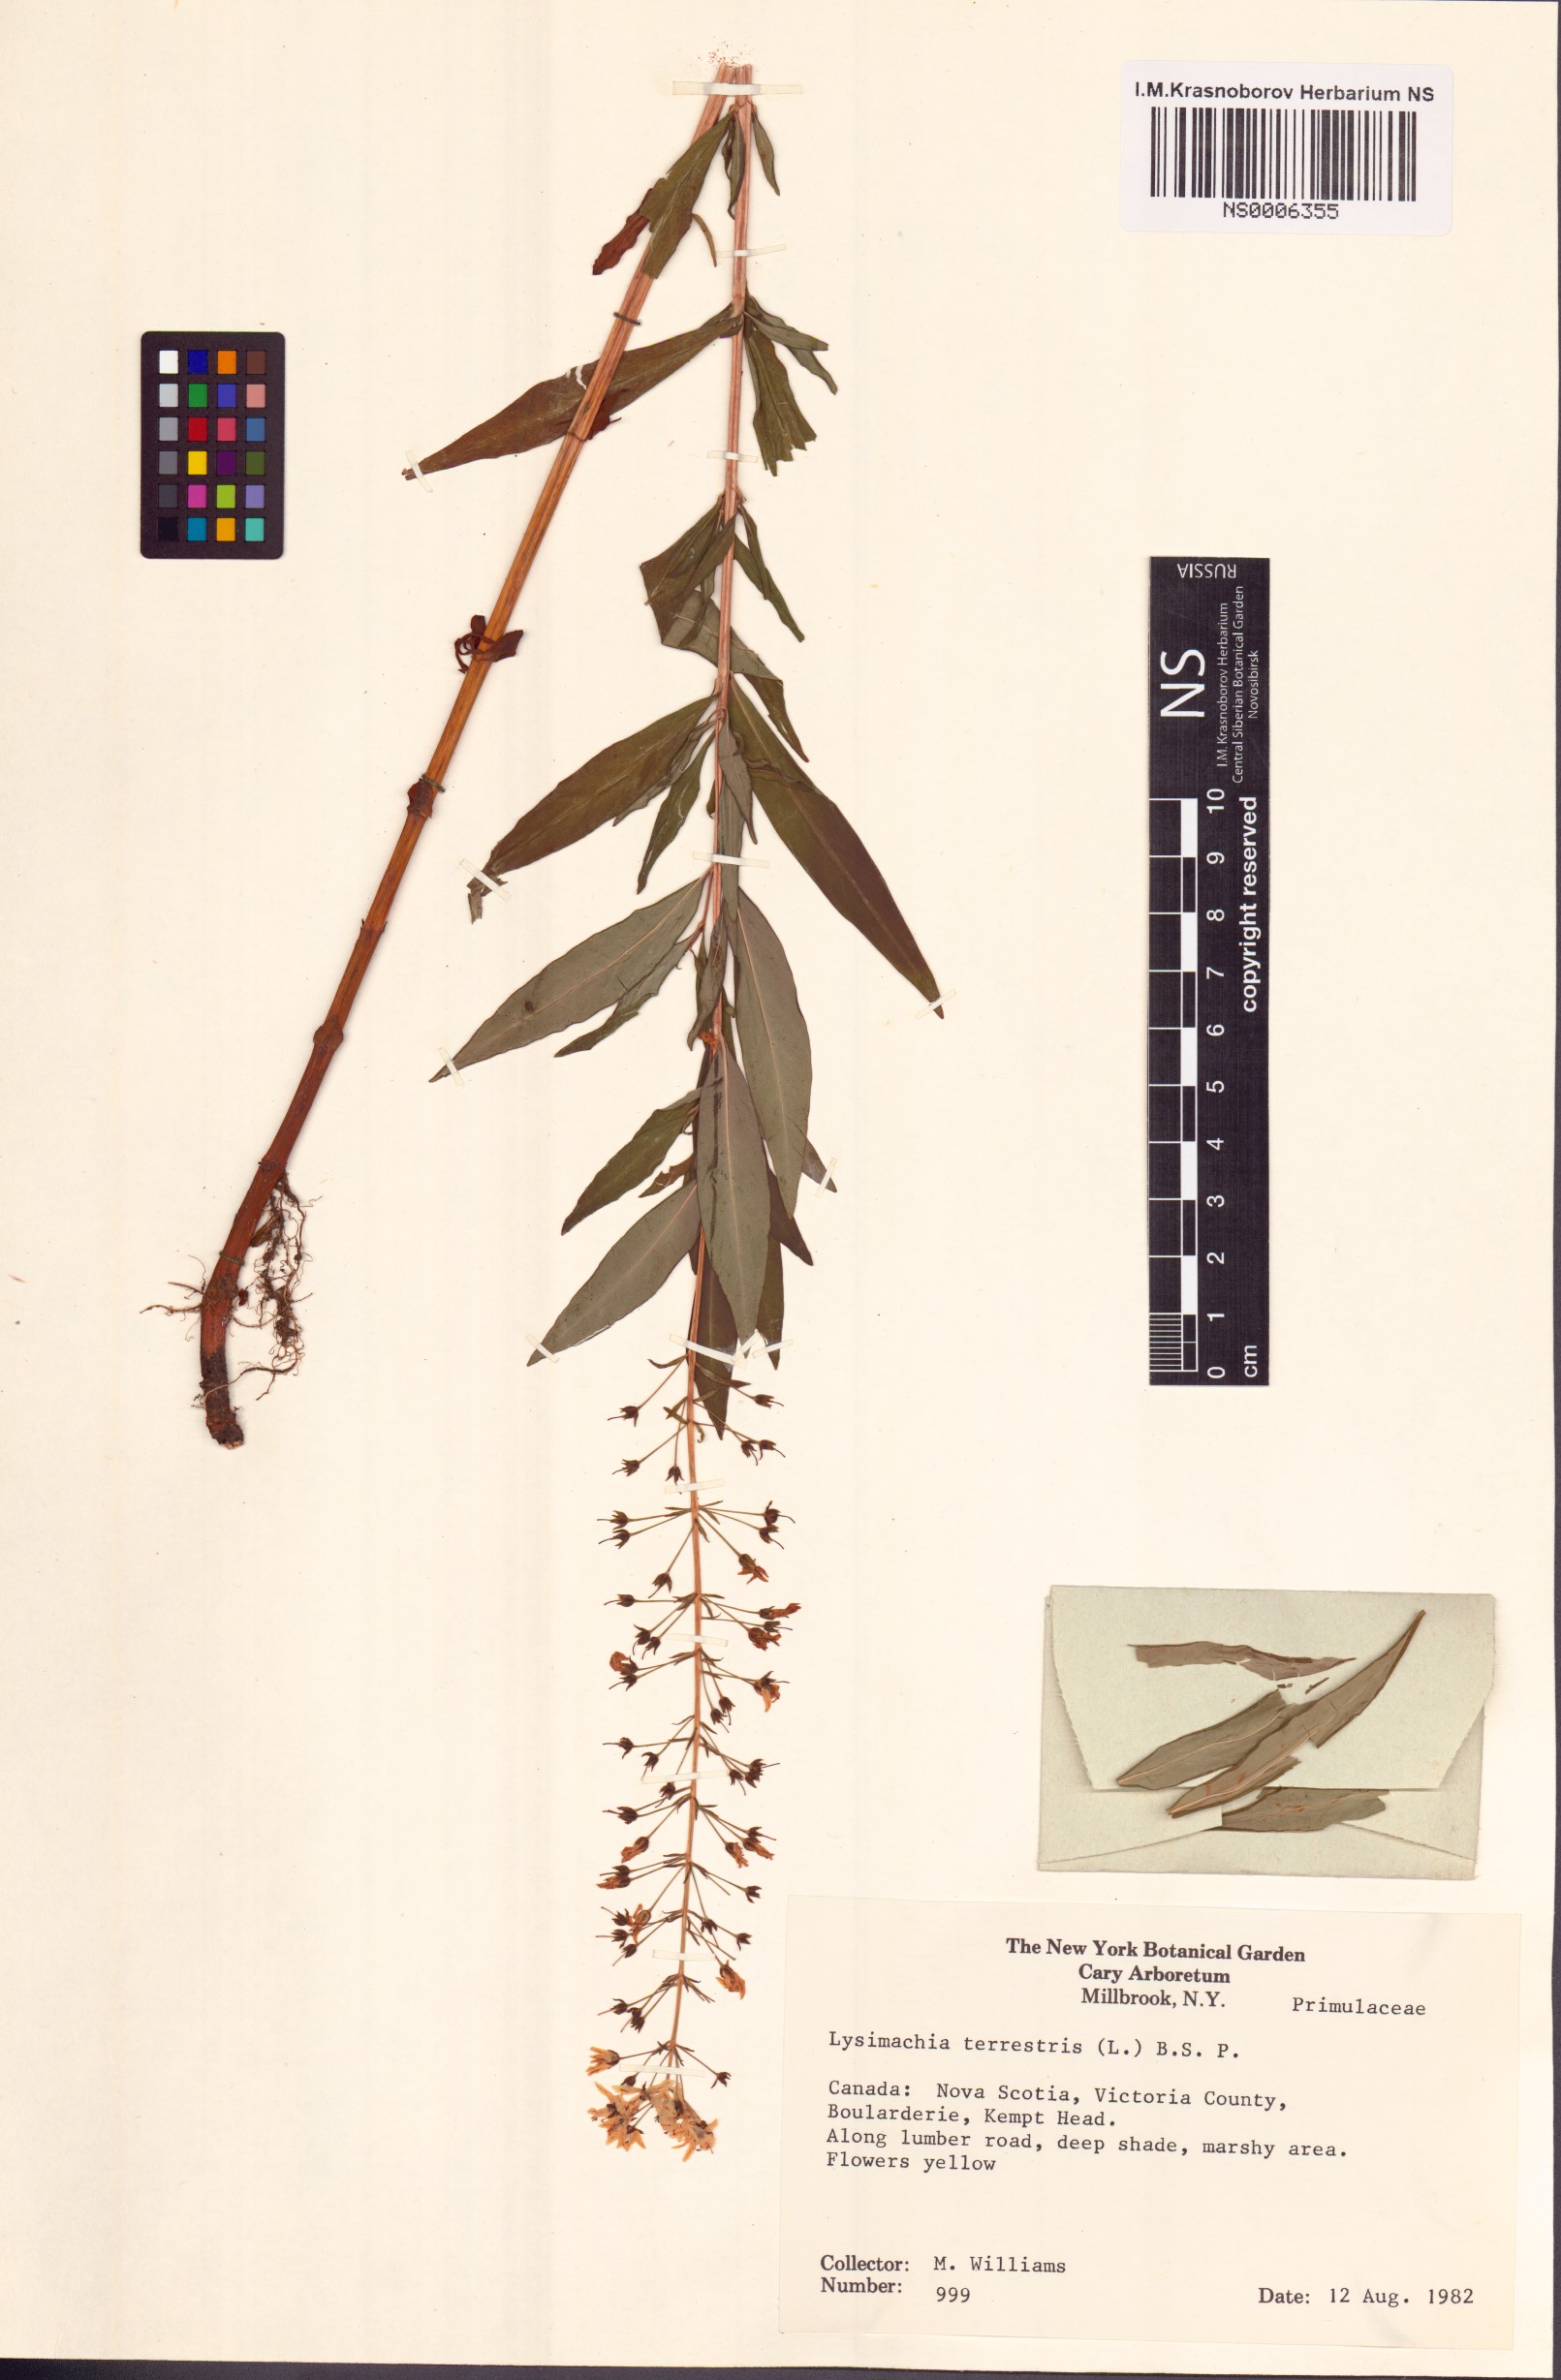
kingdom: Plantae
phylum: Tracheophyta
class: Magnoliopsida
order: Ericales
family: Primulaceae
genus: Lysimachia
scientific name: Lysimachia terrestris
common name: Lake loosestrife
